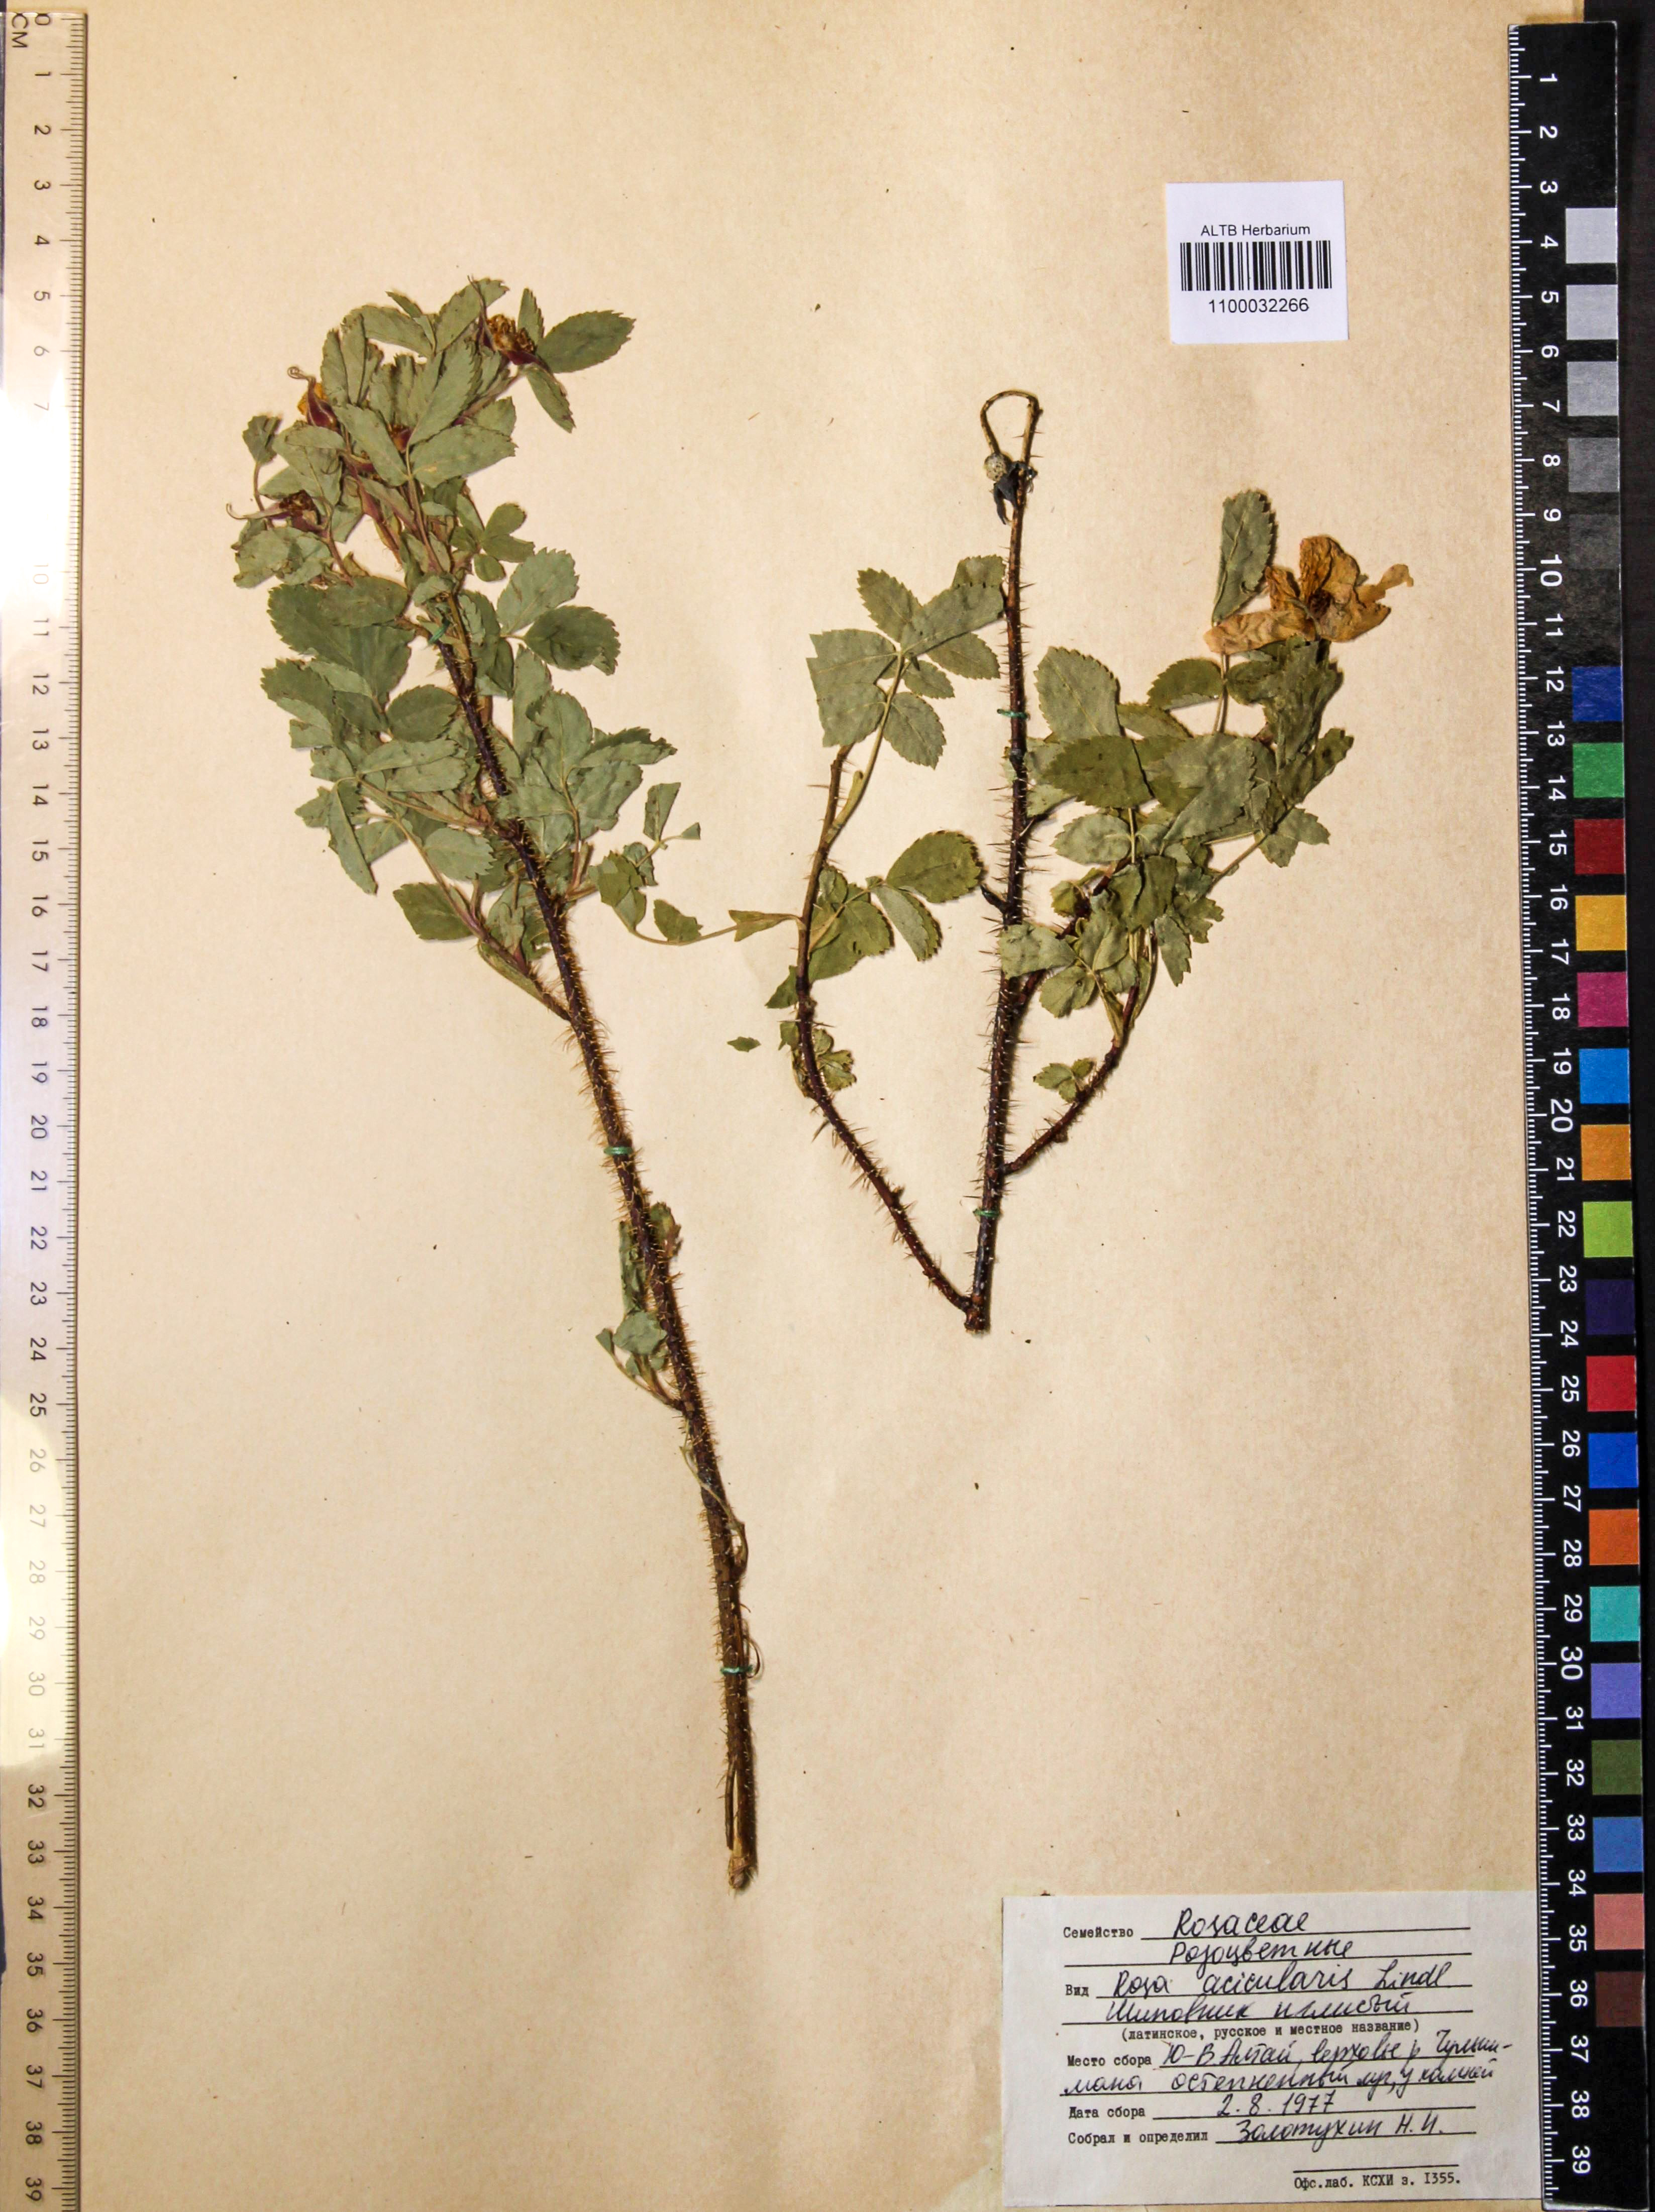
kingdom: Plantae
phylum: Tracheophyta
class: Magnoliopsida
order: Rosales
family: Rosaceae
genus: Rosa
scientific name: Rosa acicularis
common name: Prickly rose
